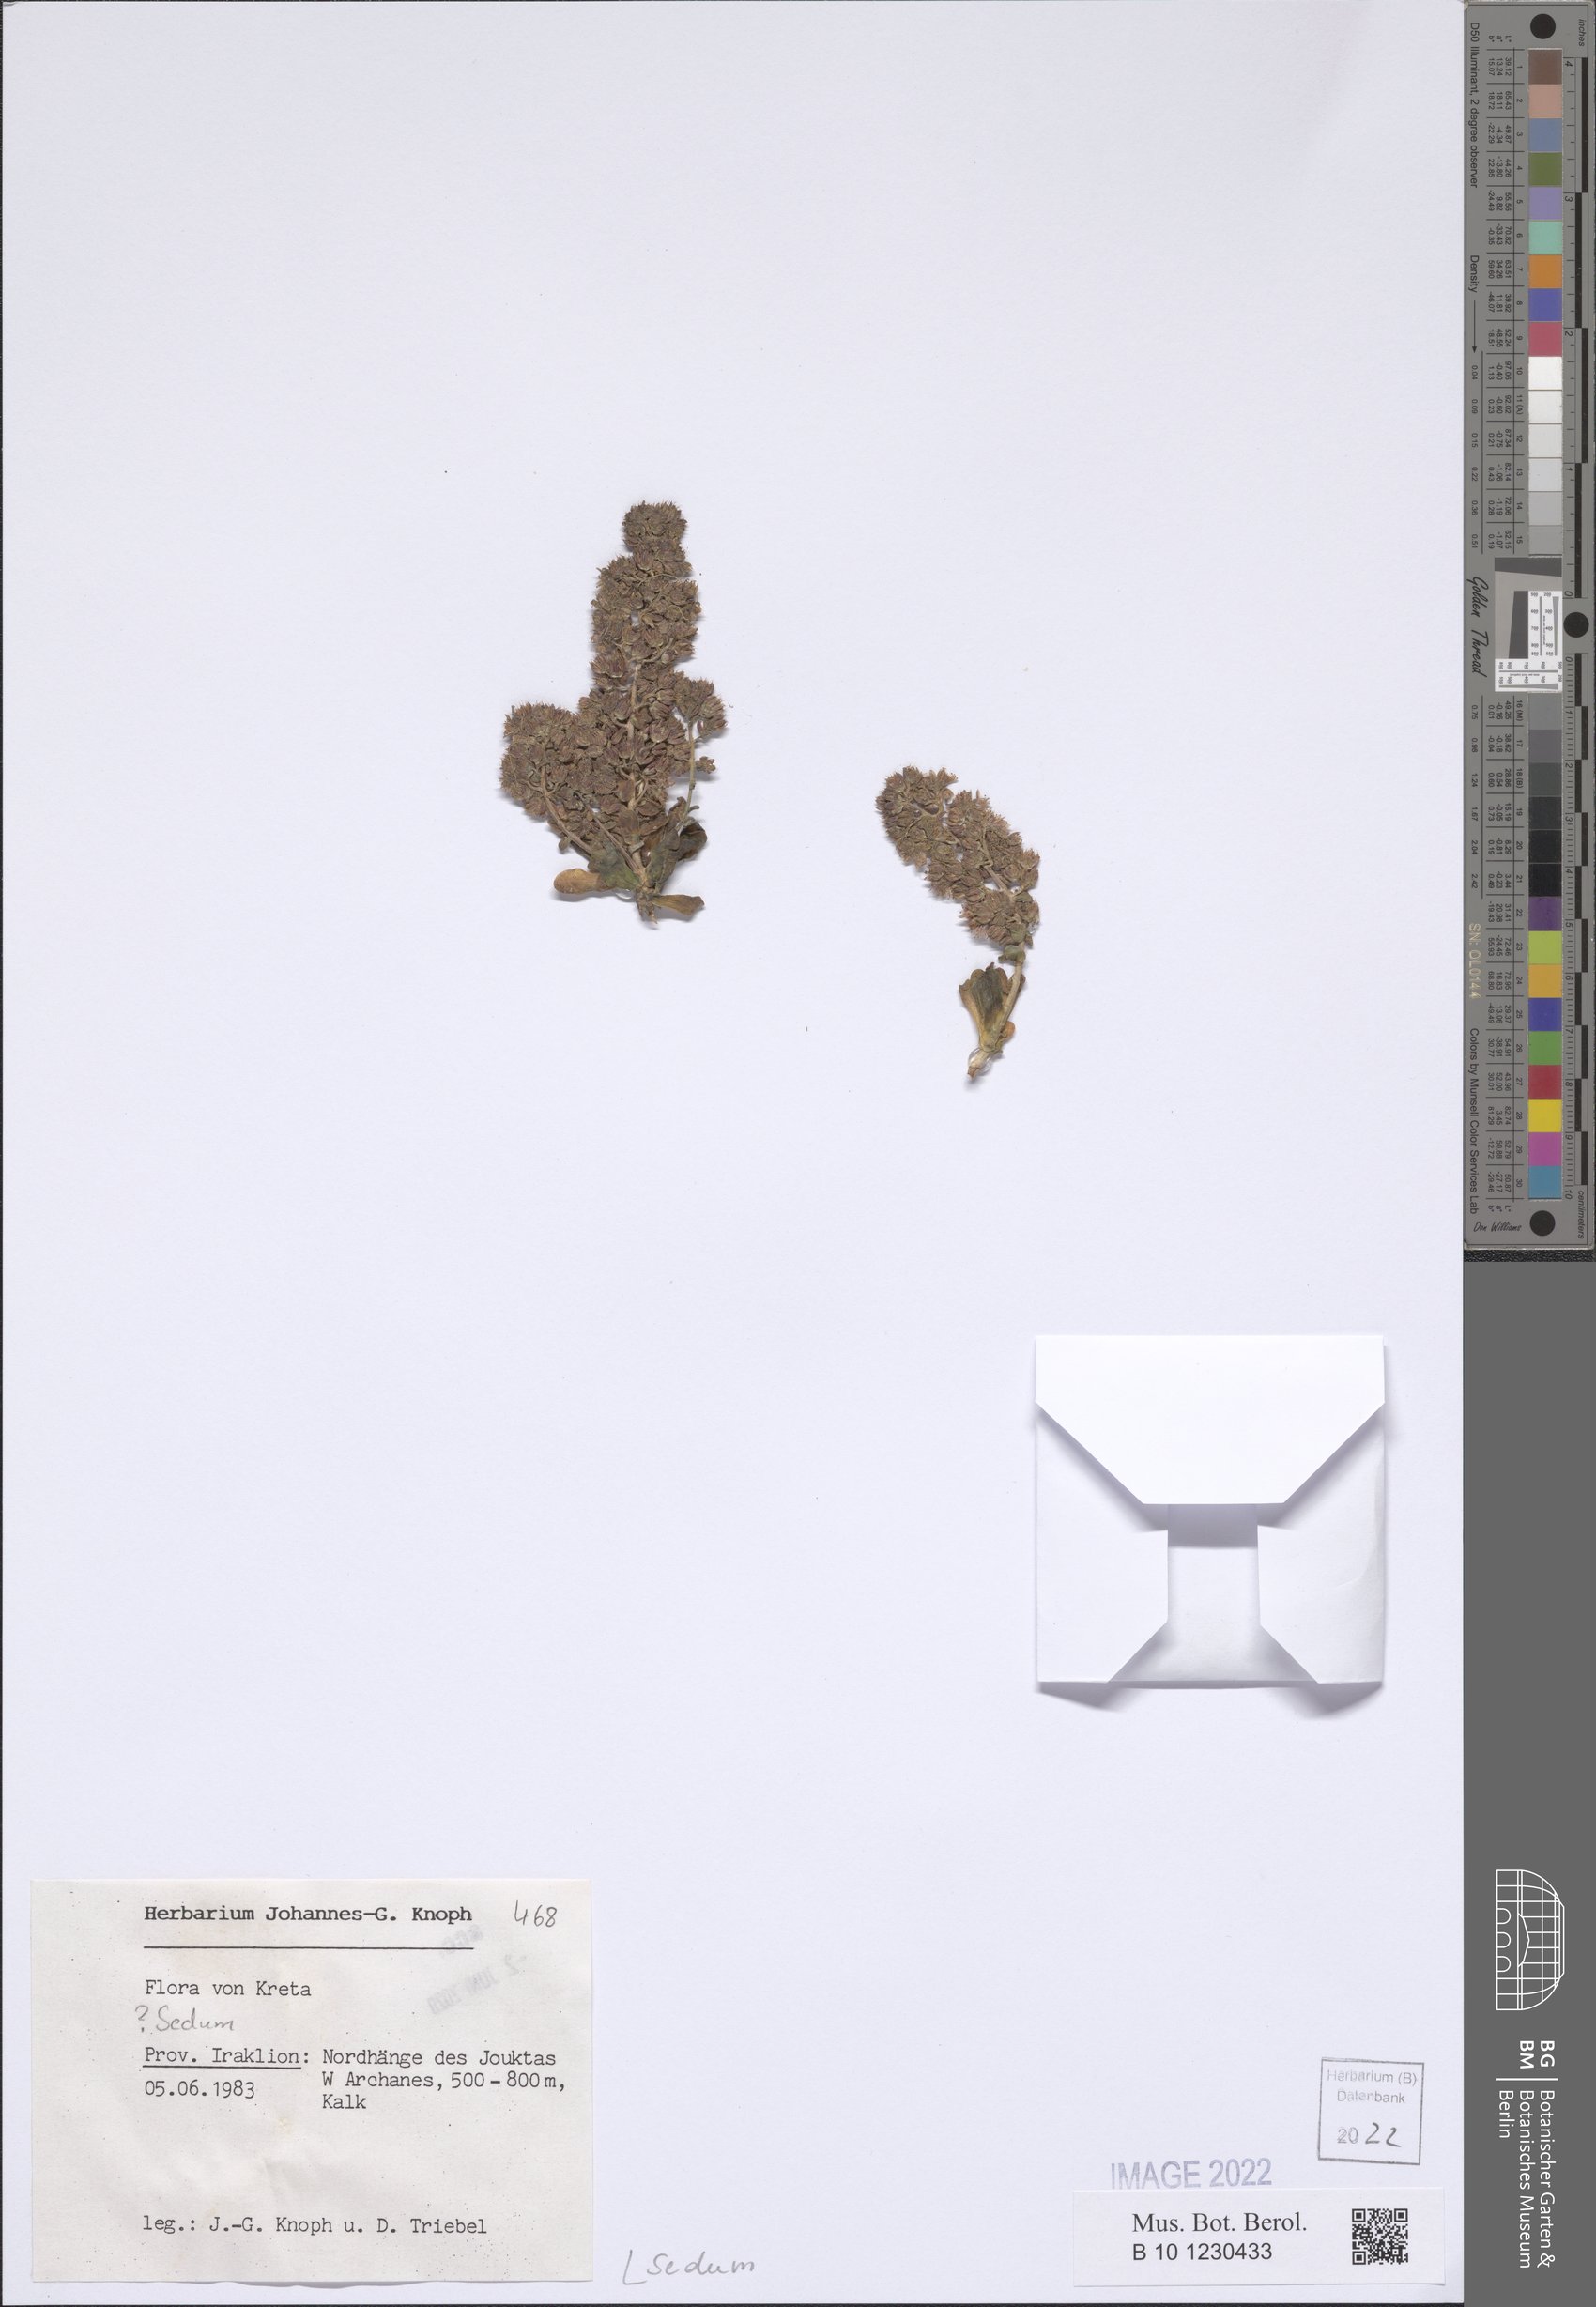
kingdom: Plantae
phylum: Tracheophyta
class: Magnoliopsida
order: Saxifragales
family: Crassulaceae
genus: Sedum
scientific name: Sedum
